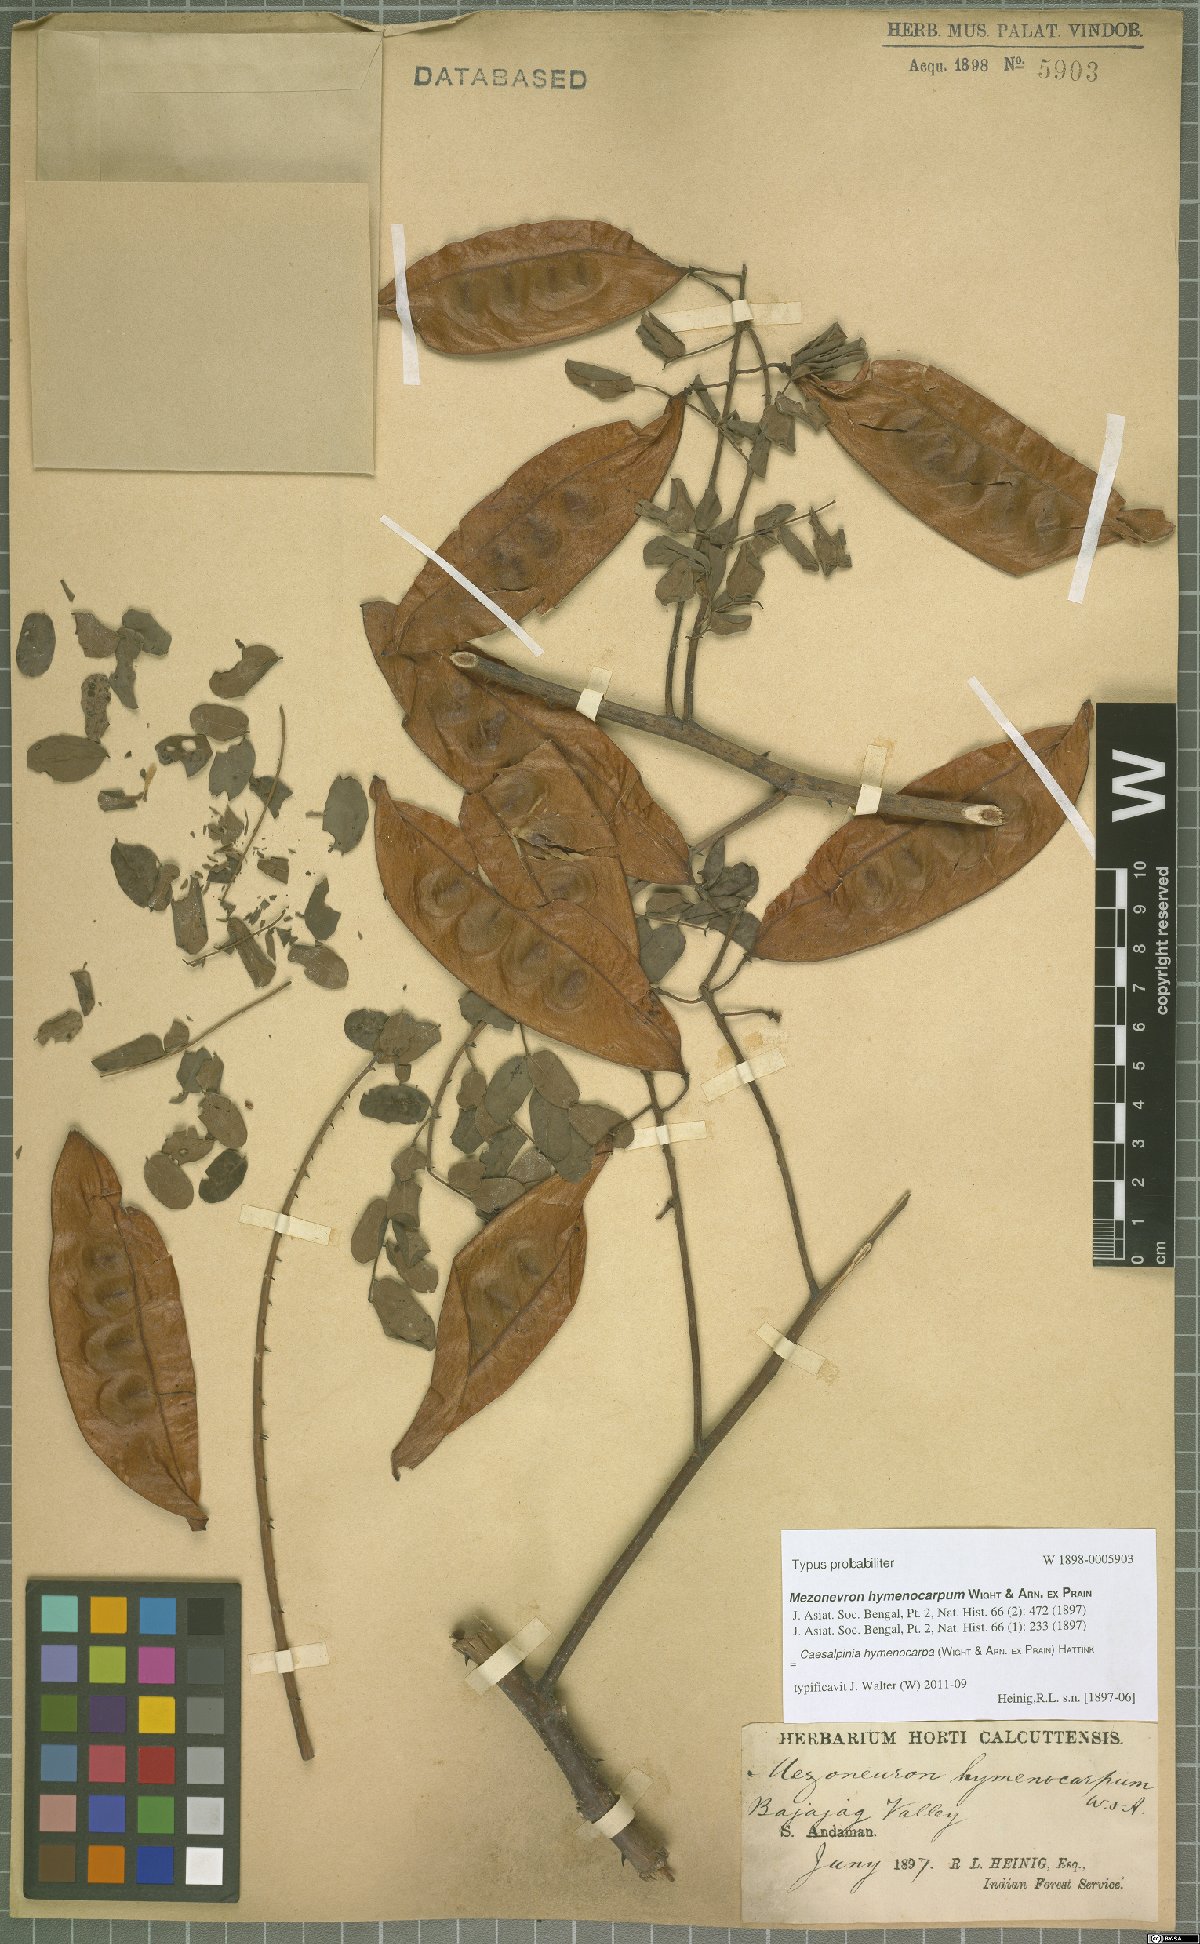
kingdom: Plantae
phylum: Tracheophyta
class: Magnoliopsida
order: Fabales
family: Fabaceae
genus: Mezoneuron
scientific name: Mezoneuron hymenocarpum
